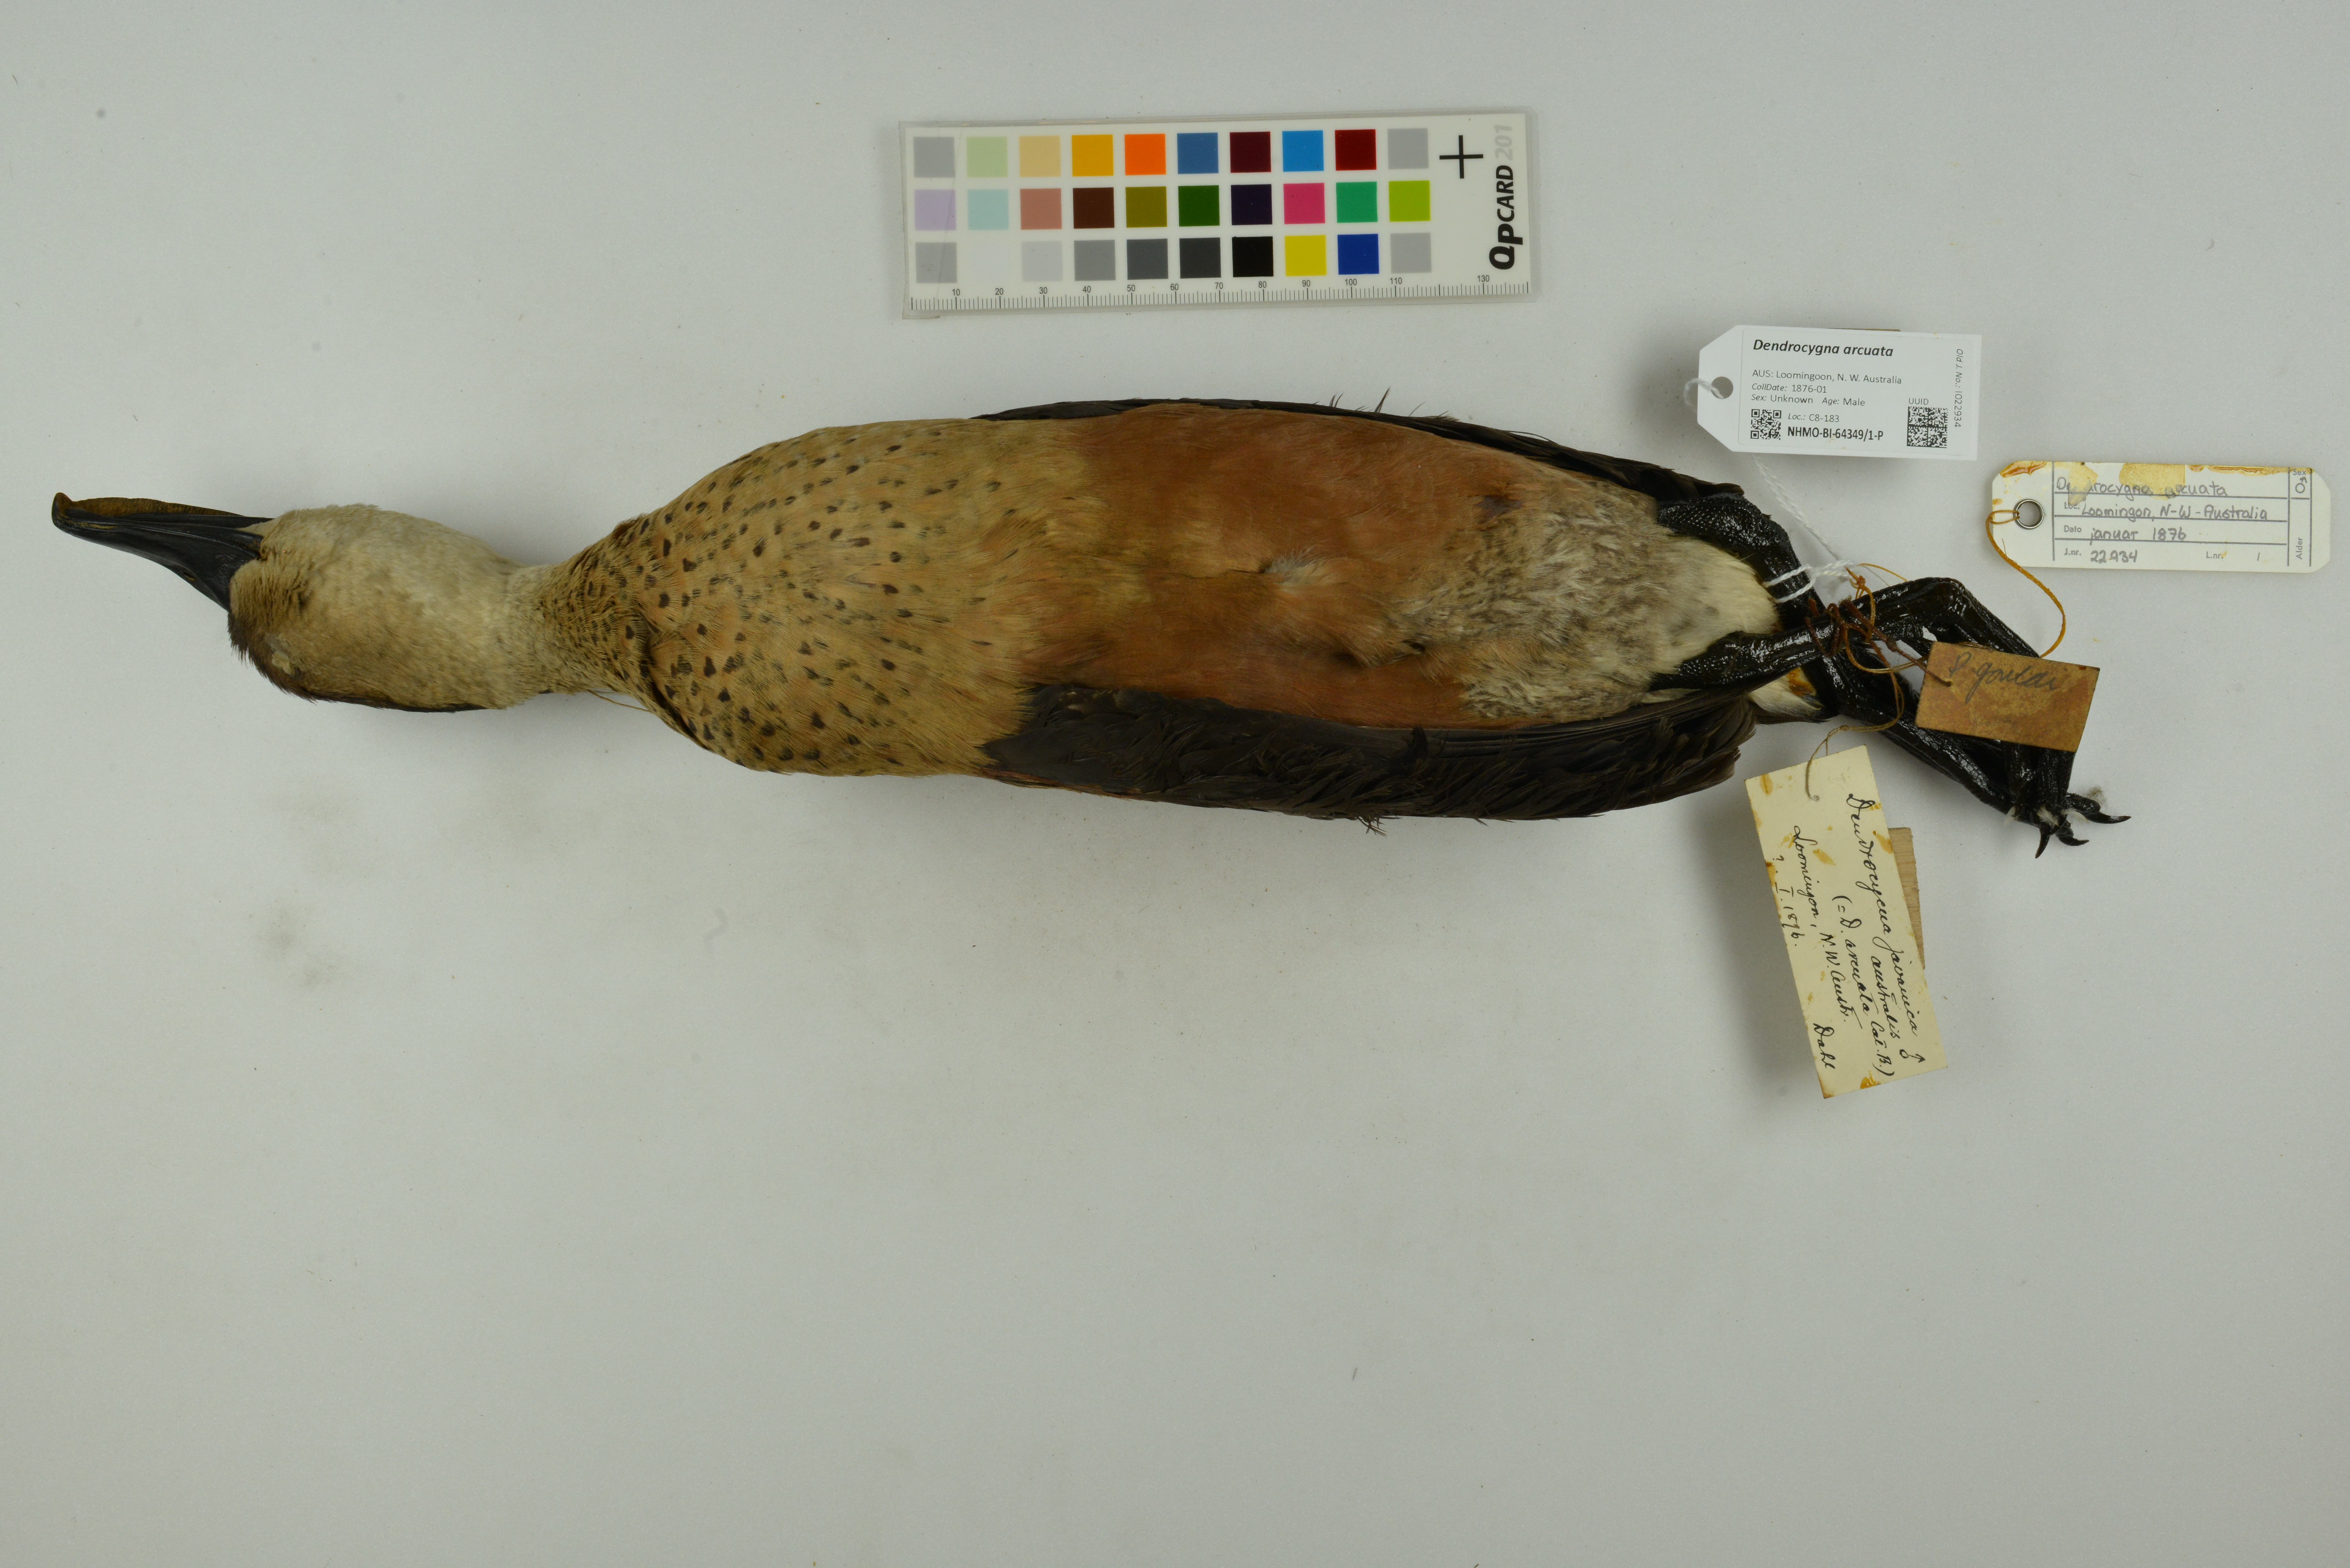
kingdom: Animalia
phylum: Chordata
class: Aves
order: Anseriformes
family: Anatidae
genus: Dendrocygna
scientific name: Dendrocygna arcuata
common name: Wandering whistling-duck
